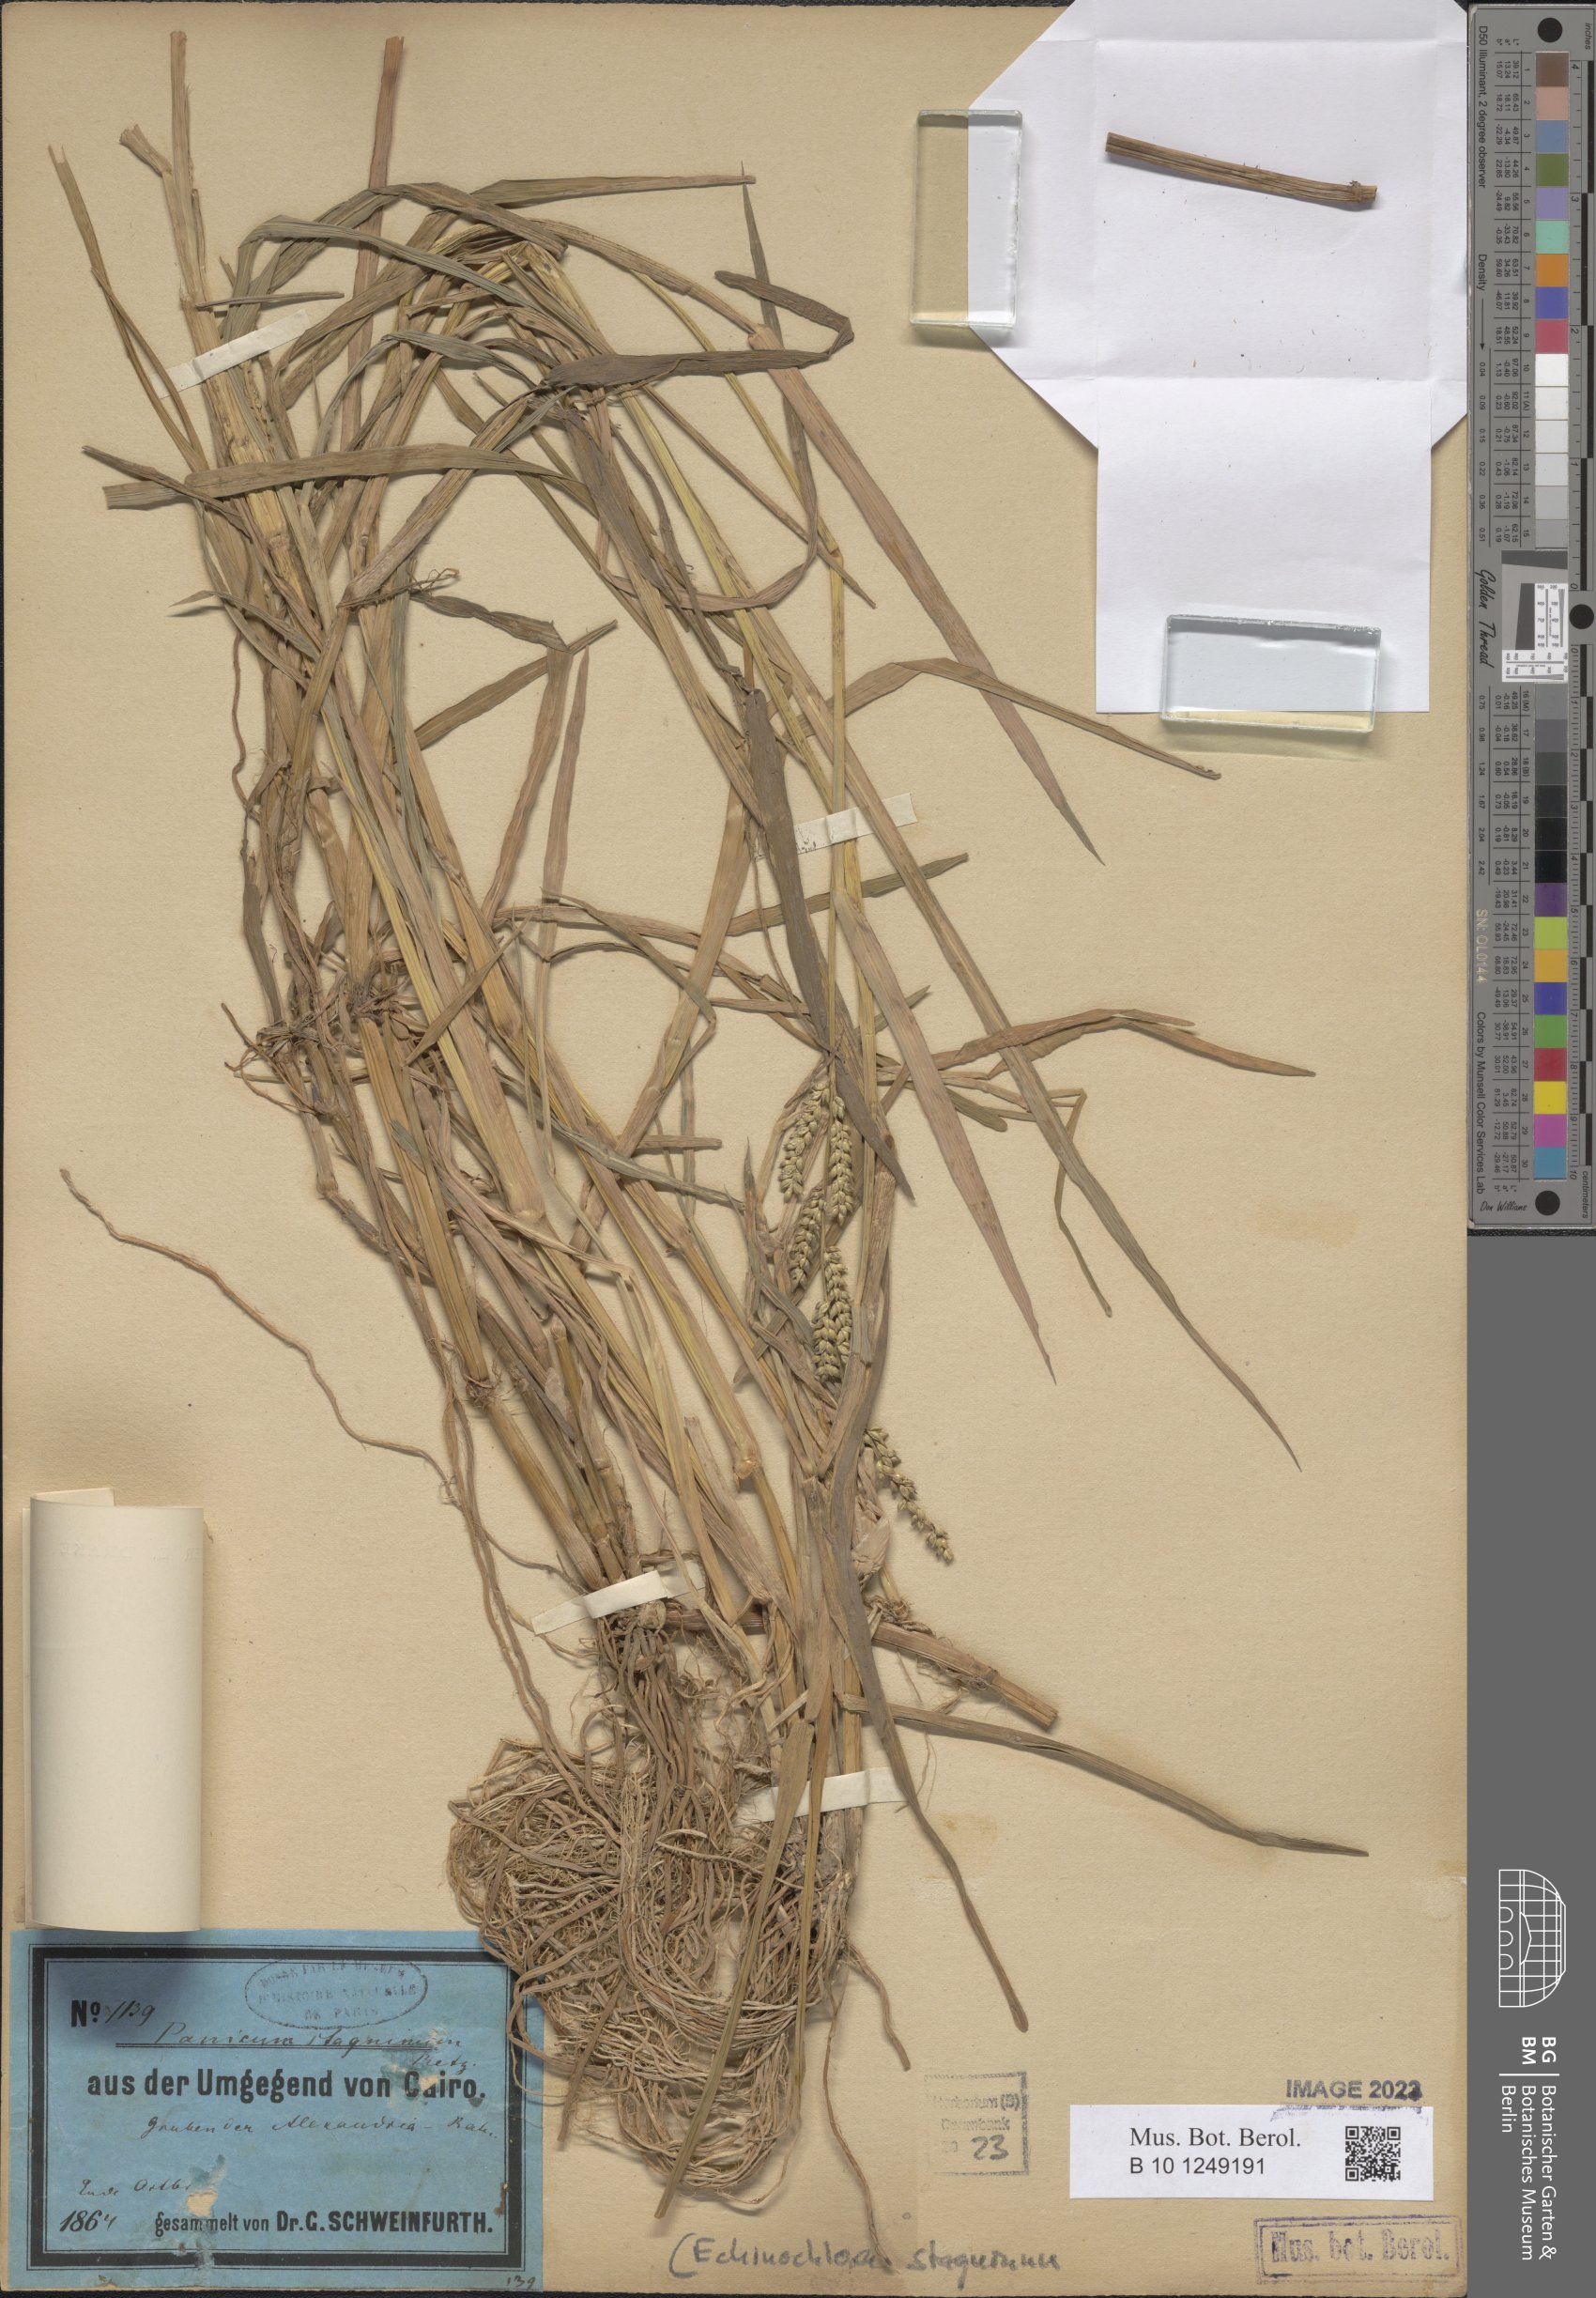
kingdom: Plantae
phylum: Tracheophyta
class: Liliopsida
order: Poales
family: Poaceae
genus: Echinochloa
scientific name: Echinochloa stagnina
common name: Burgu grass
